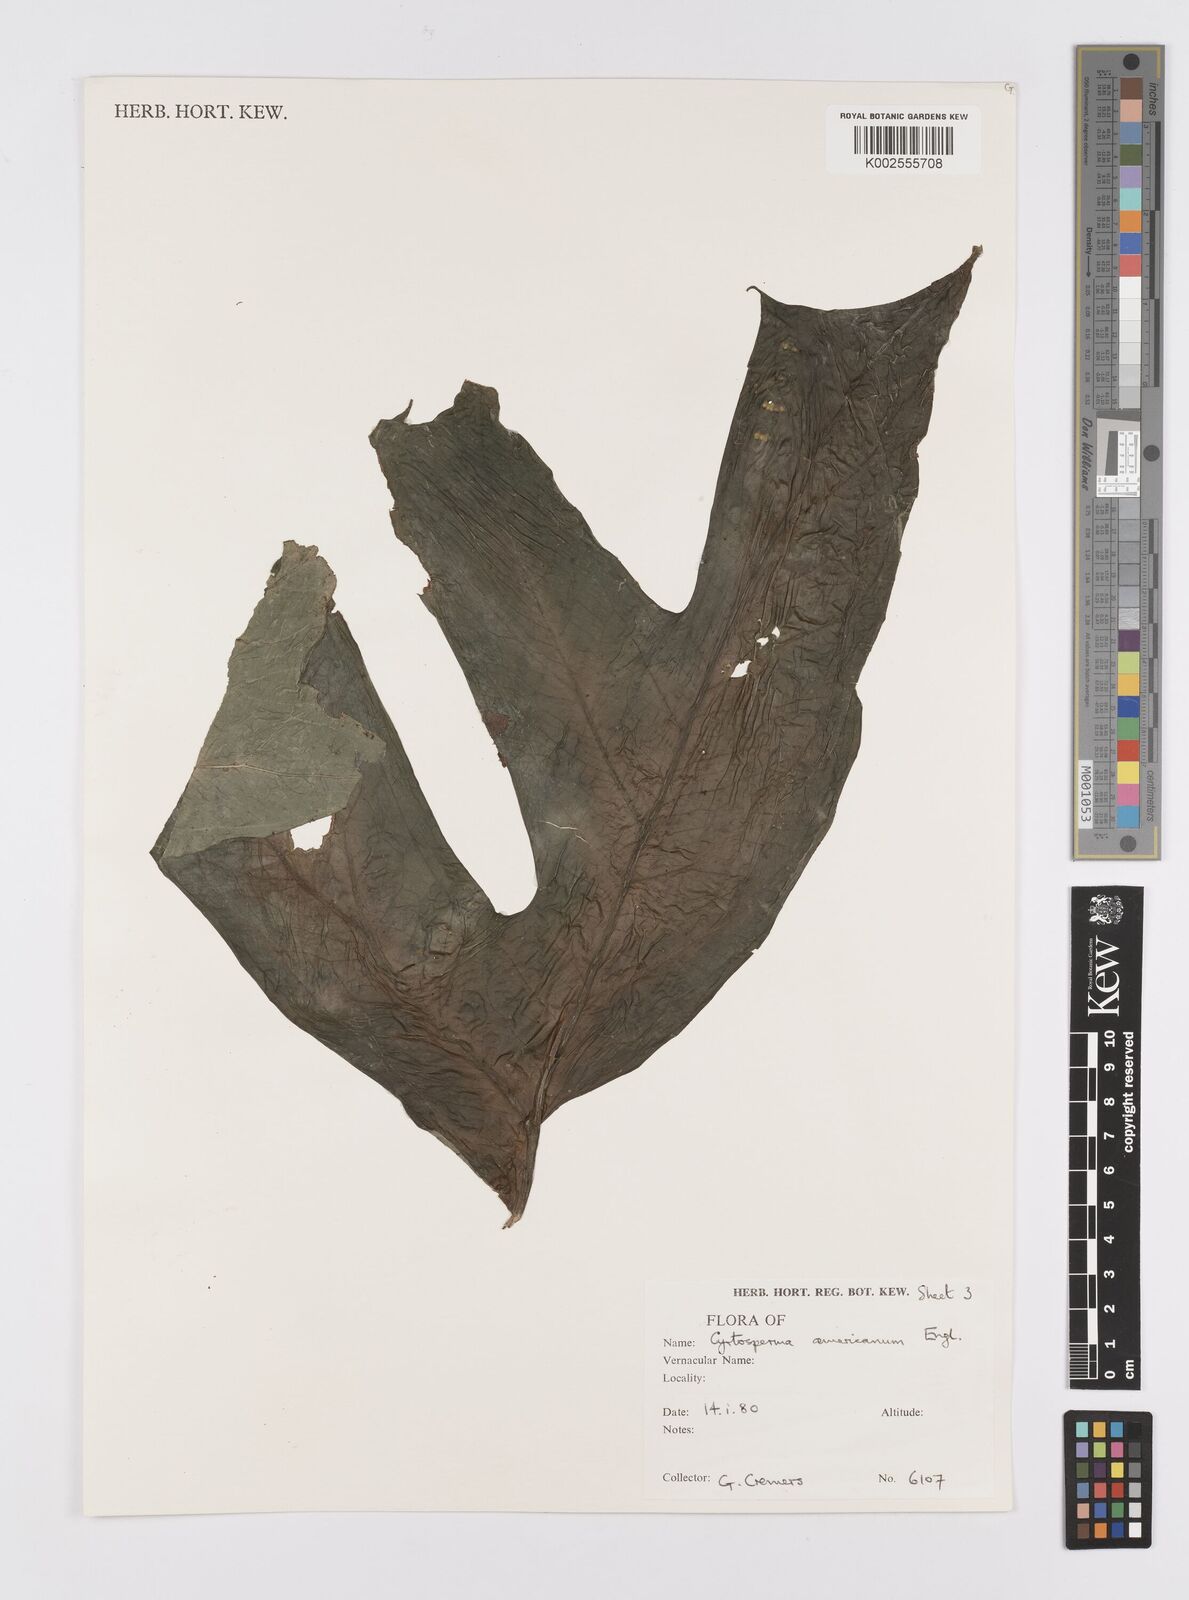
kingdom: Plantae
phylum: Tracheophyta
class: Liliopsida
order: Alismatales
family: Araceae
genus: Anaphyllopsis
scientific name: Anaphyllopsis americana
